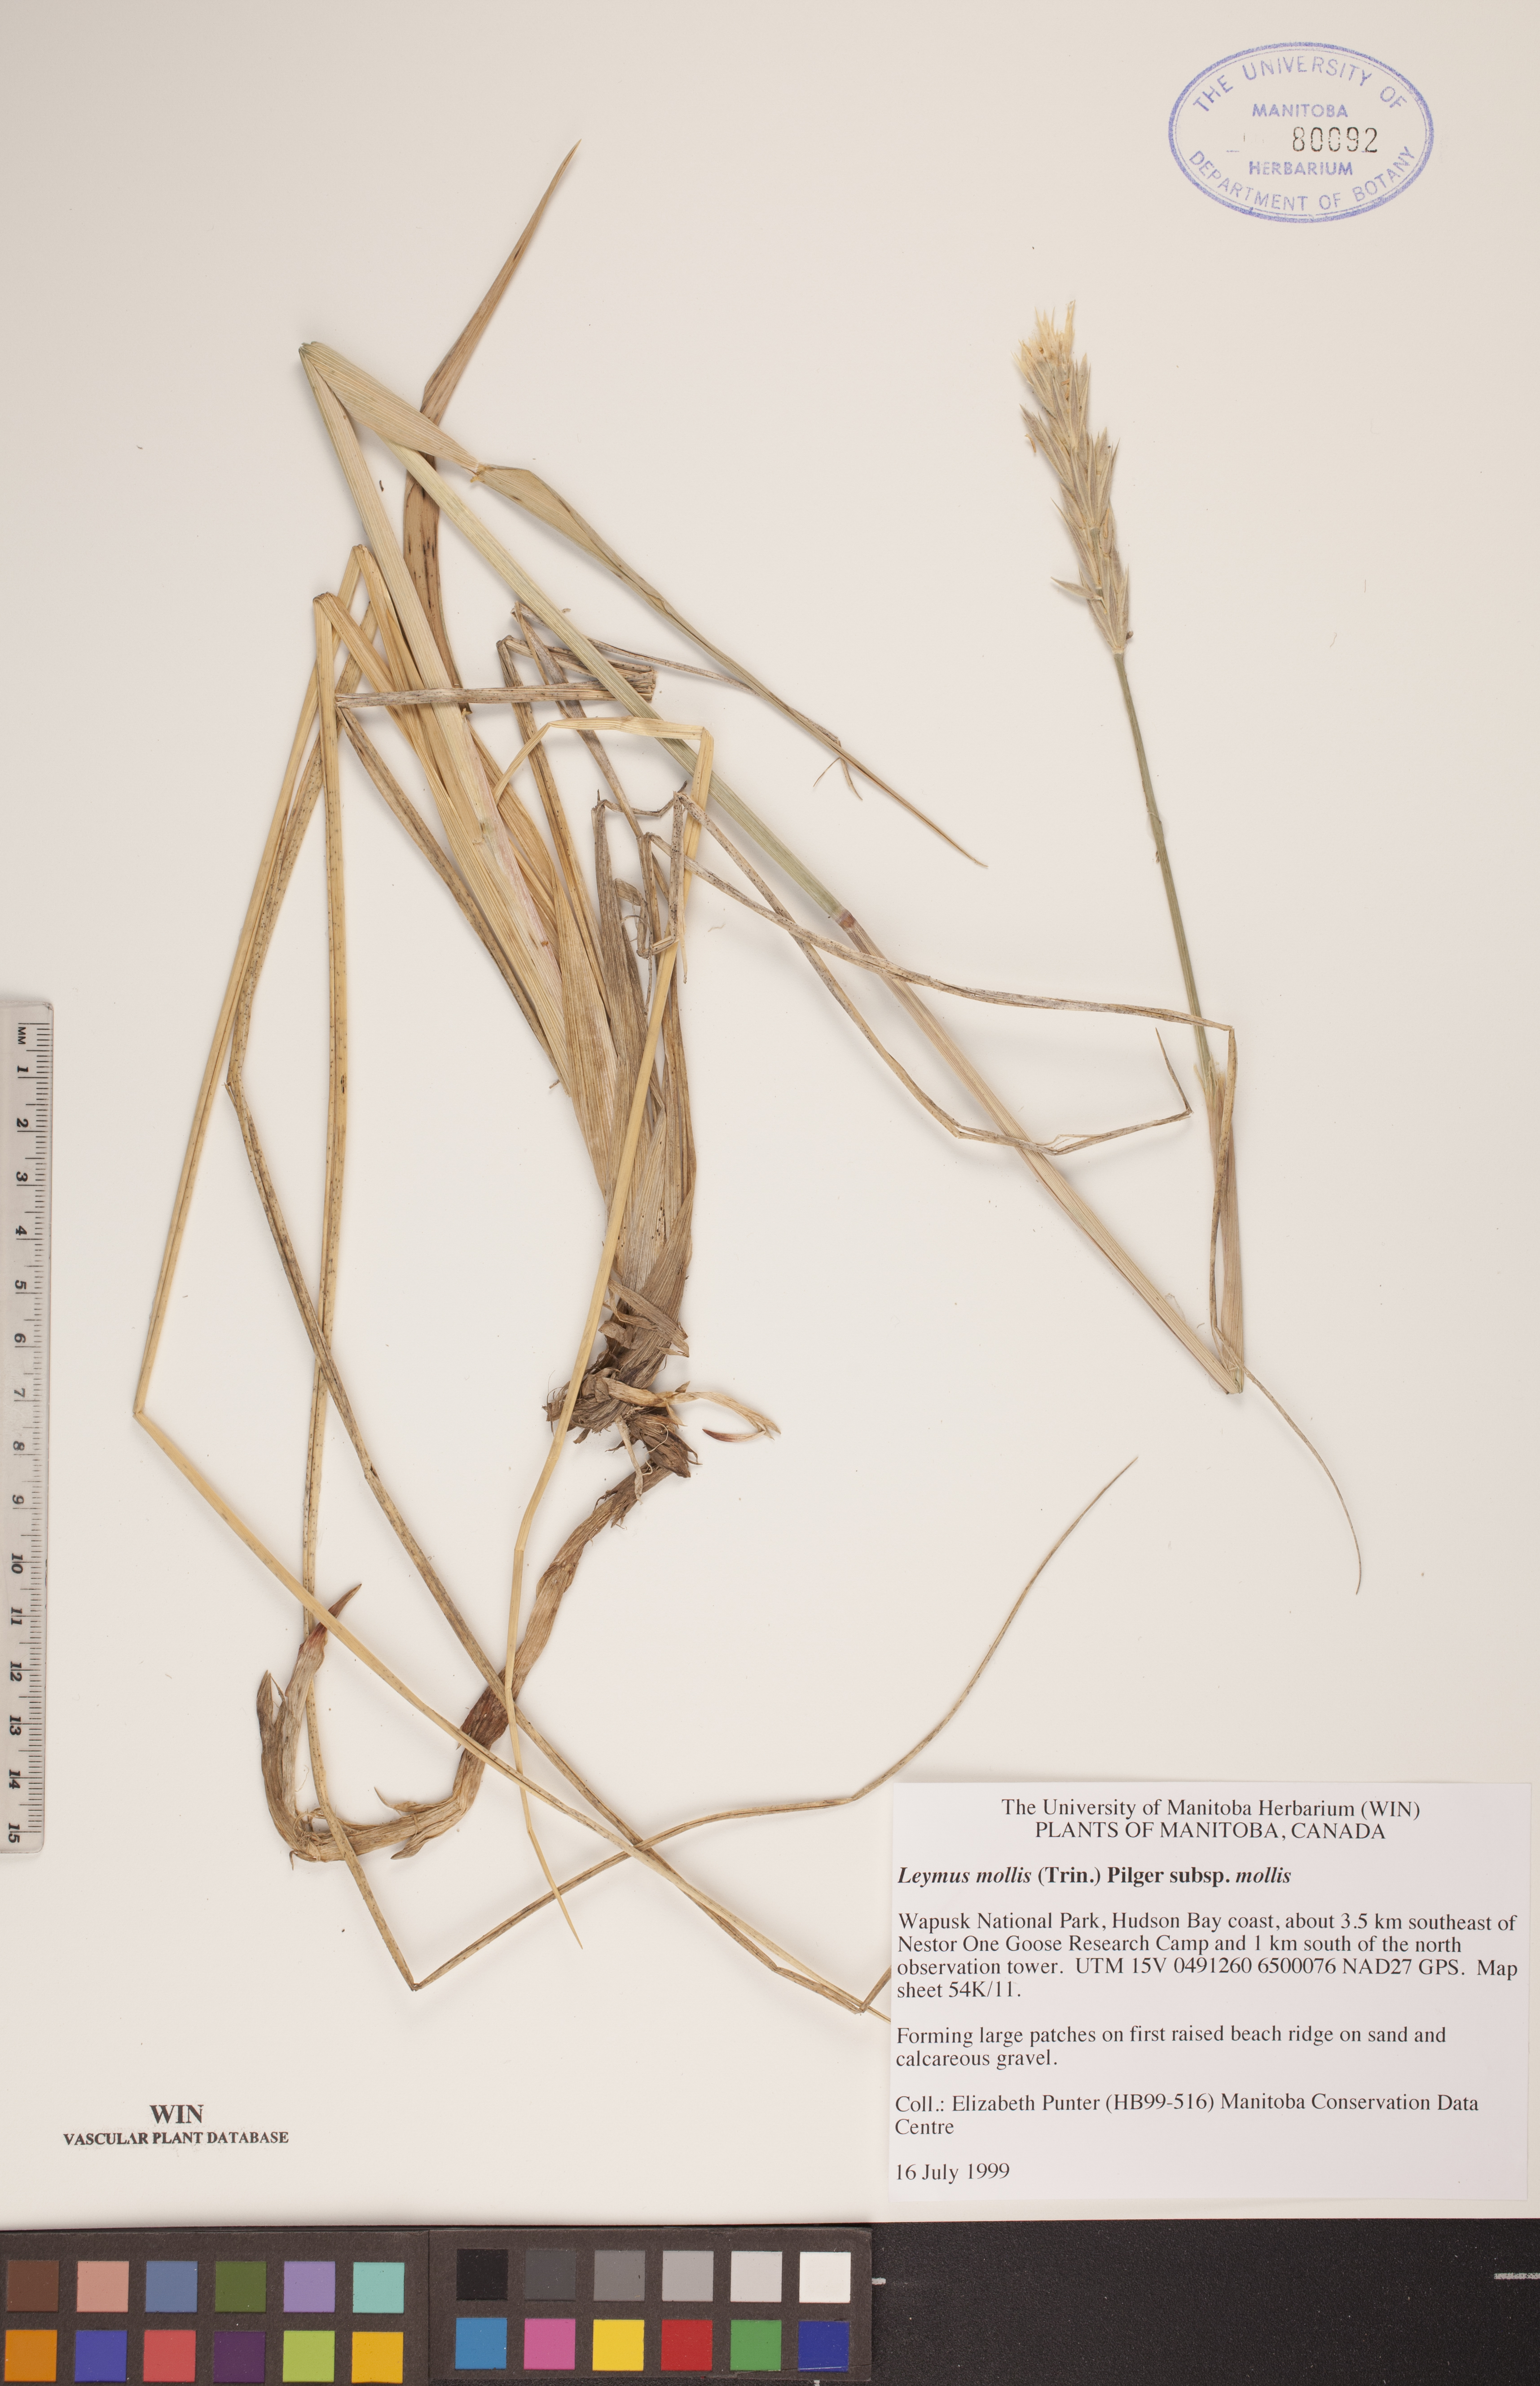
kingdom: Plantae
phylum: Tracheophyta
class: Liliopsida
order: Poales
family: Poaceae
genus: Leymus
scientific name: Leymus mollis
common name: American dune grass
